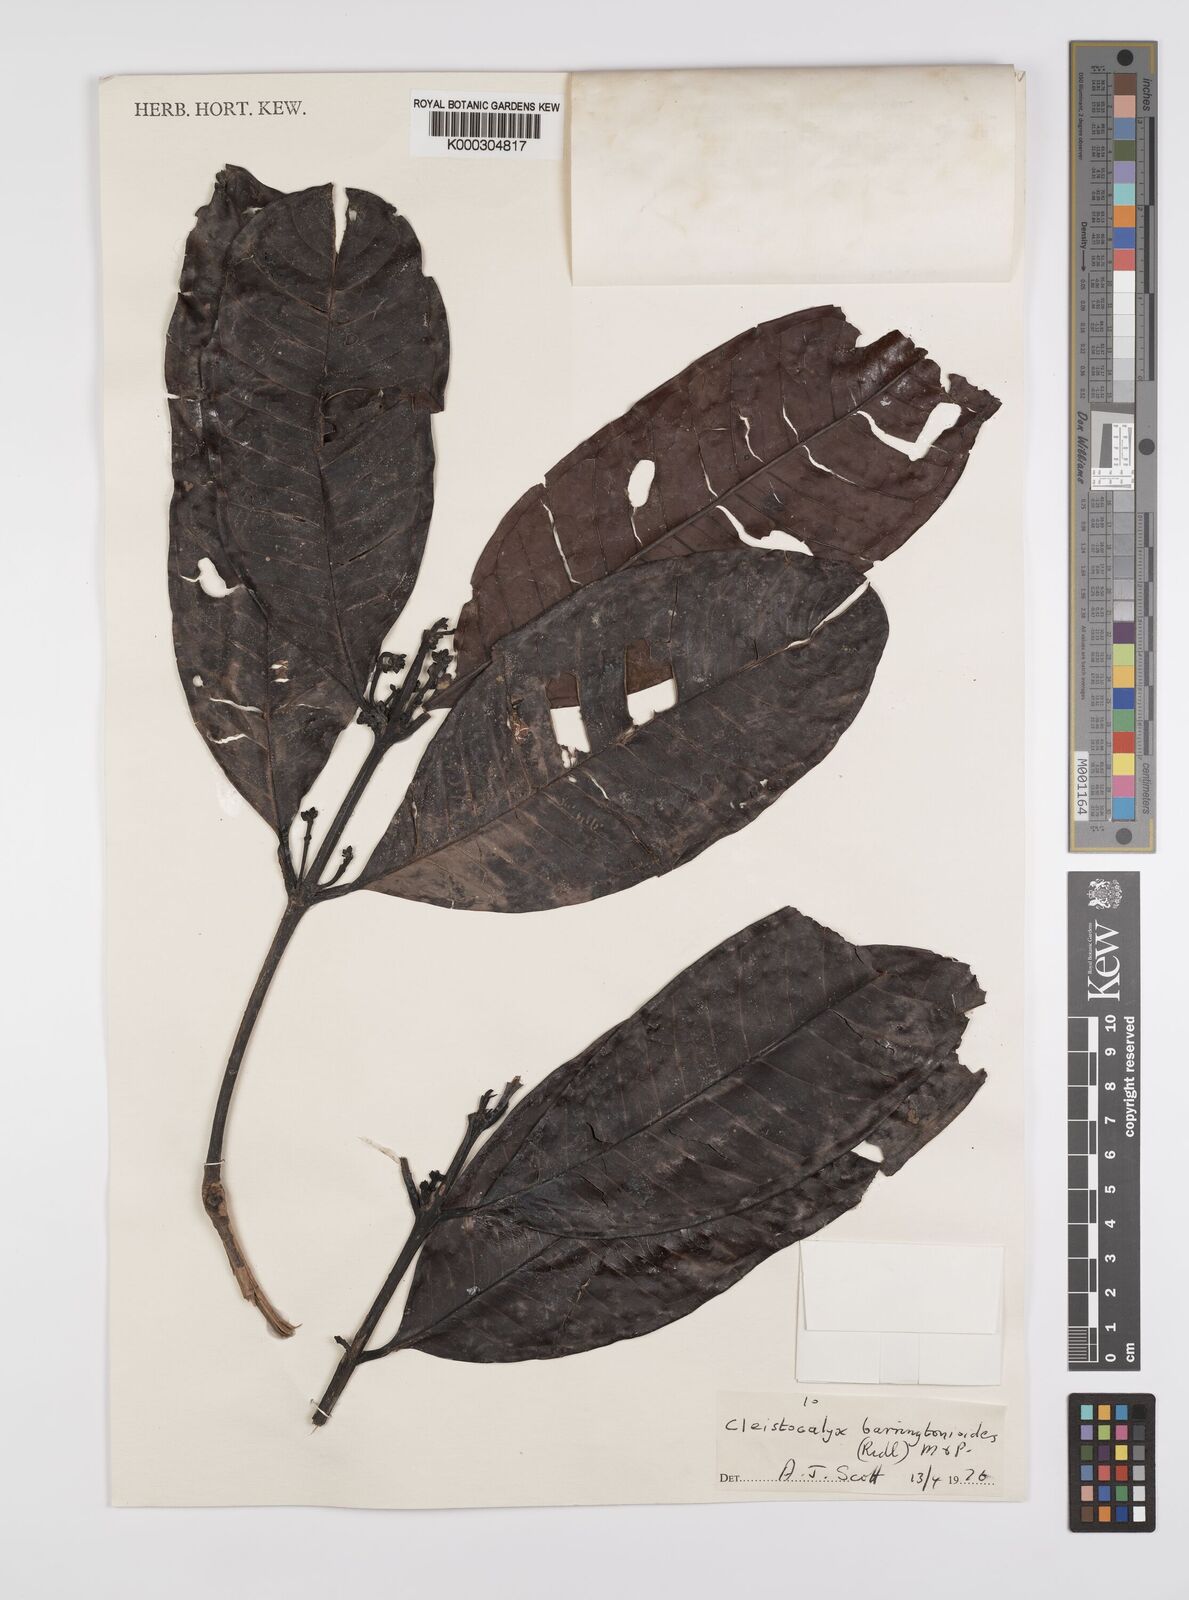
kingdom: Plantae
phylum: Tracheophyta
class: Magnoliopsida
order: Myrtales
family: Myrtaceae
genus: Syzygium
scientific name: Syzygium barringtonioides
